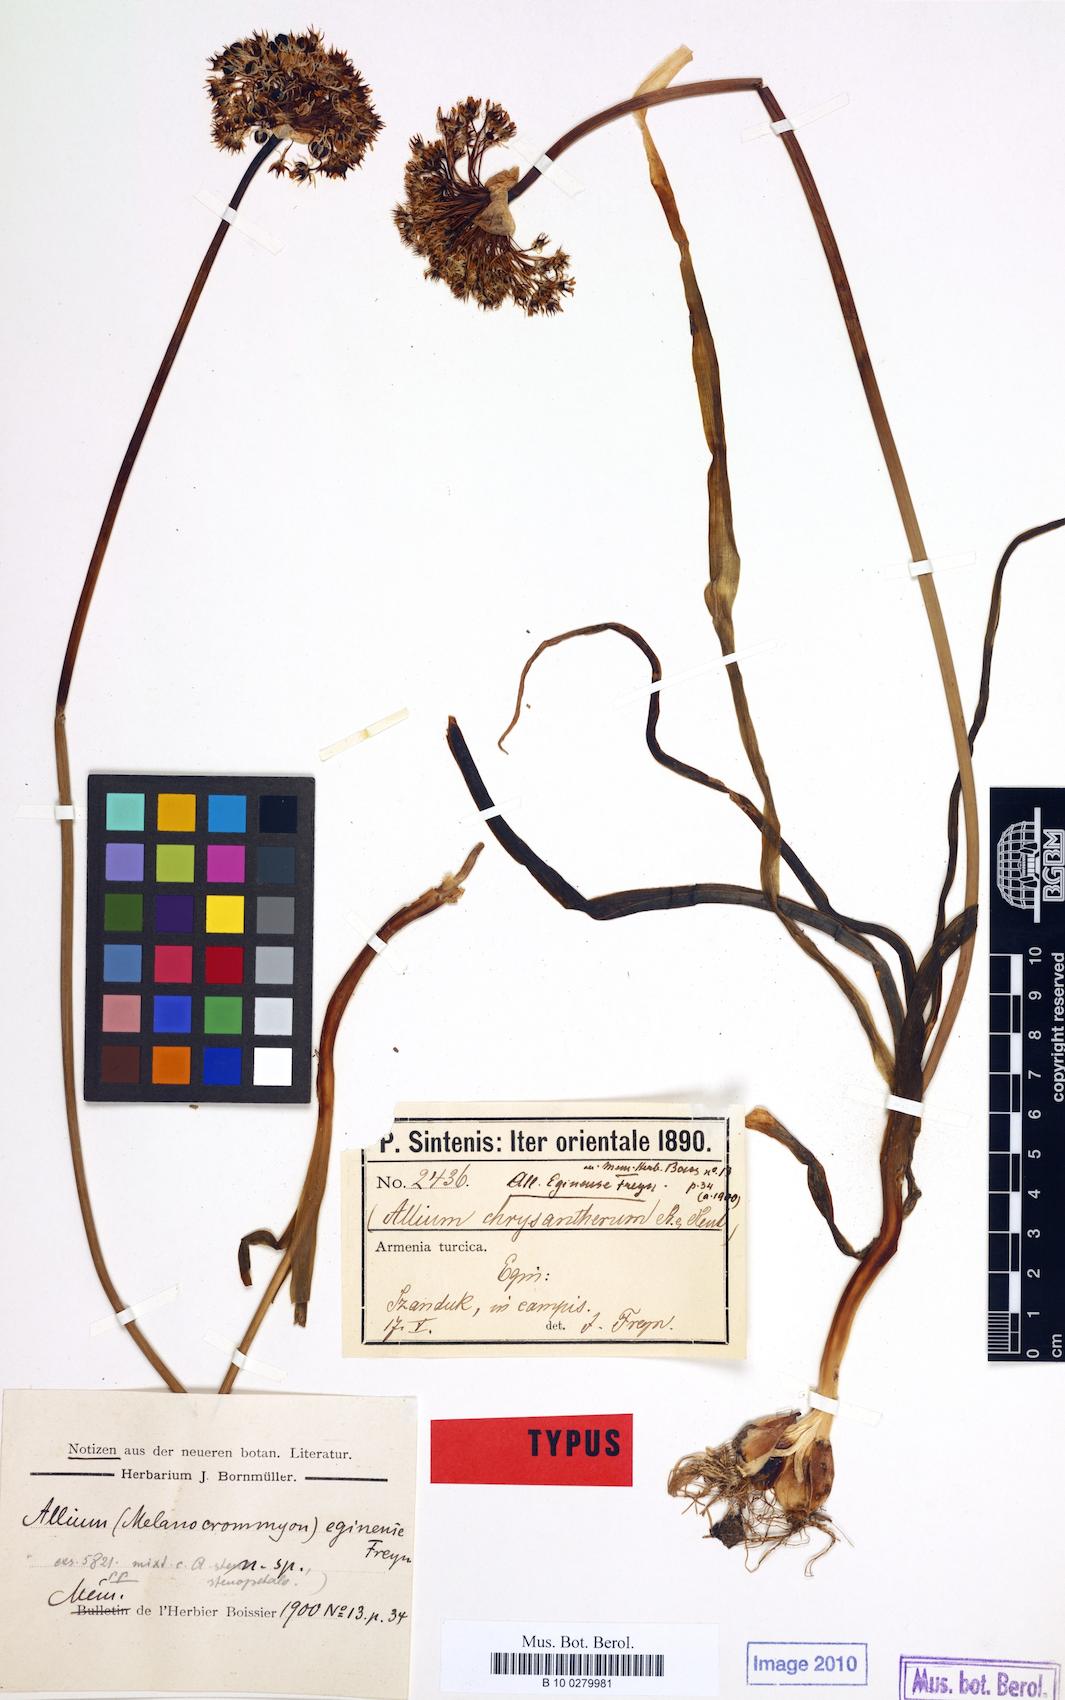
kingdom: Plantae
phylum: Tracheophyta
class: Liliopsida
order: Asparagales
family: Amaryllidaceae
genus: Allium
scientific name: Allium chrysantherum
